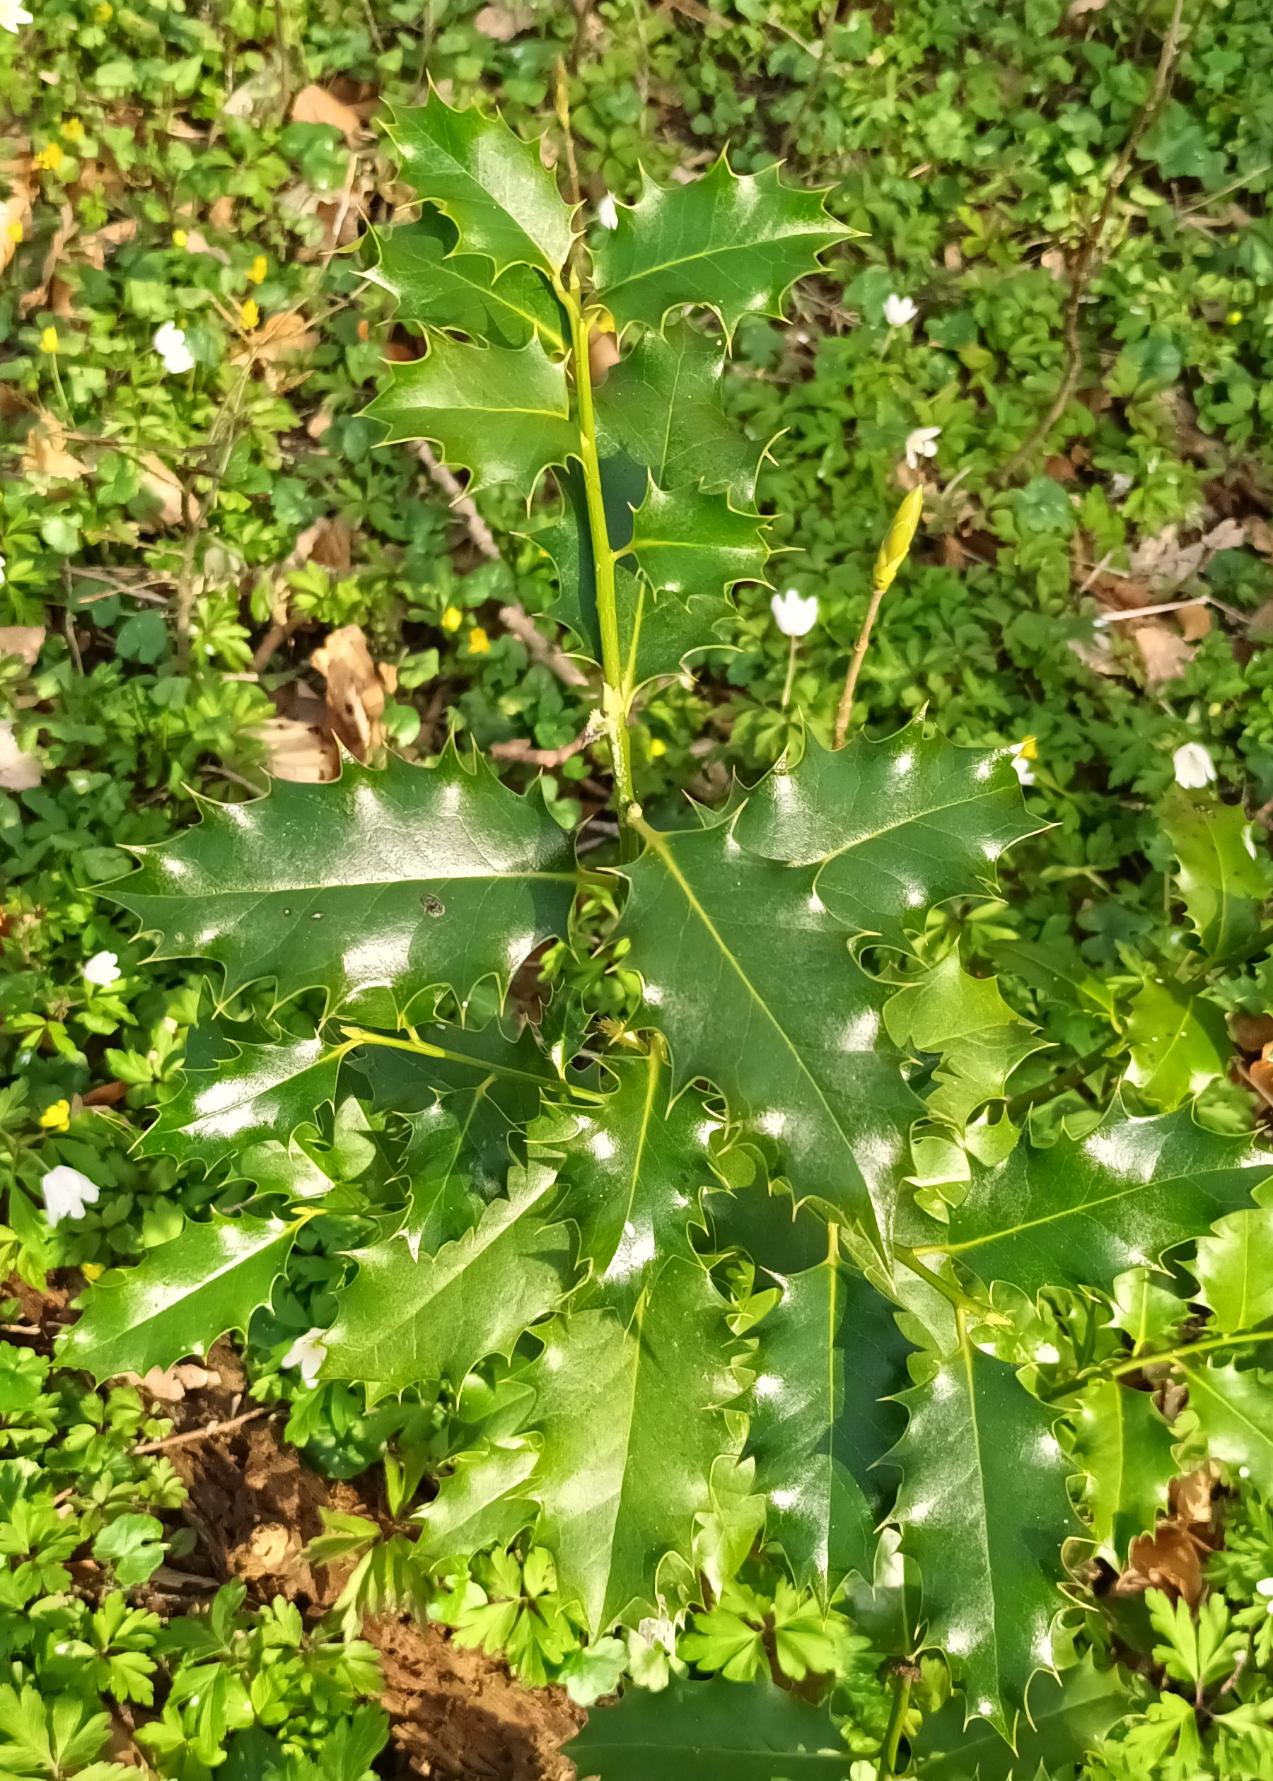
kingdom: Plantae
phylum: Tracheophyta
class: Magnoliopsida
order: Aquifoliales
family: Aquifoliaceae
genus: Ilex
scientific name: Ilex aquifolium
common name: Kristtorn
